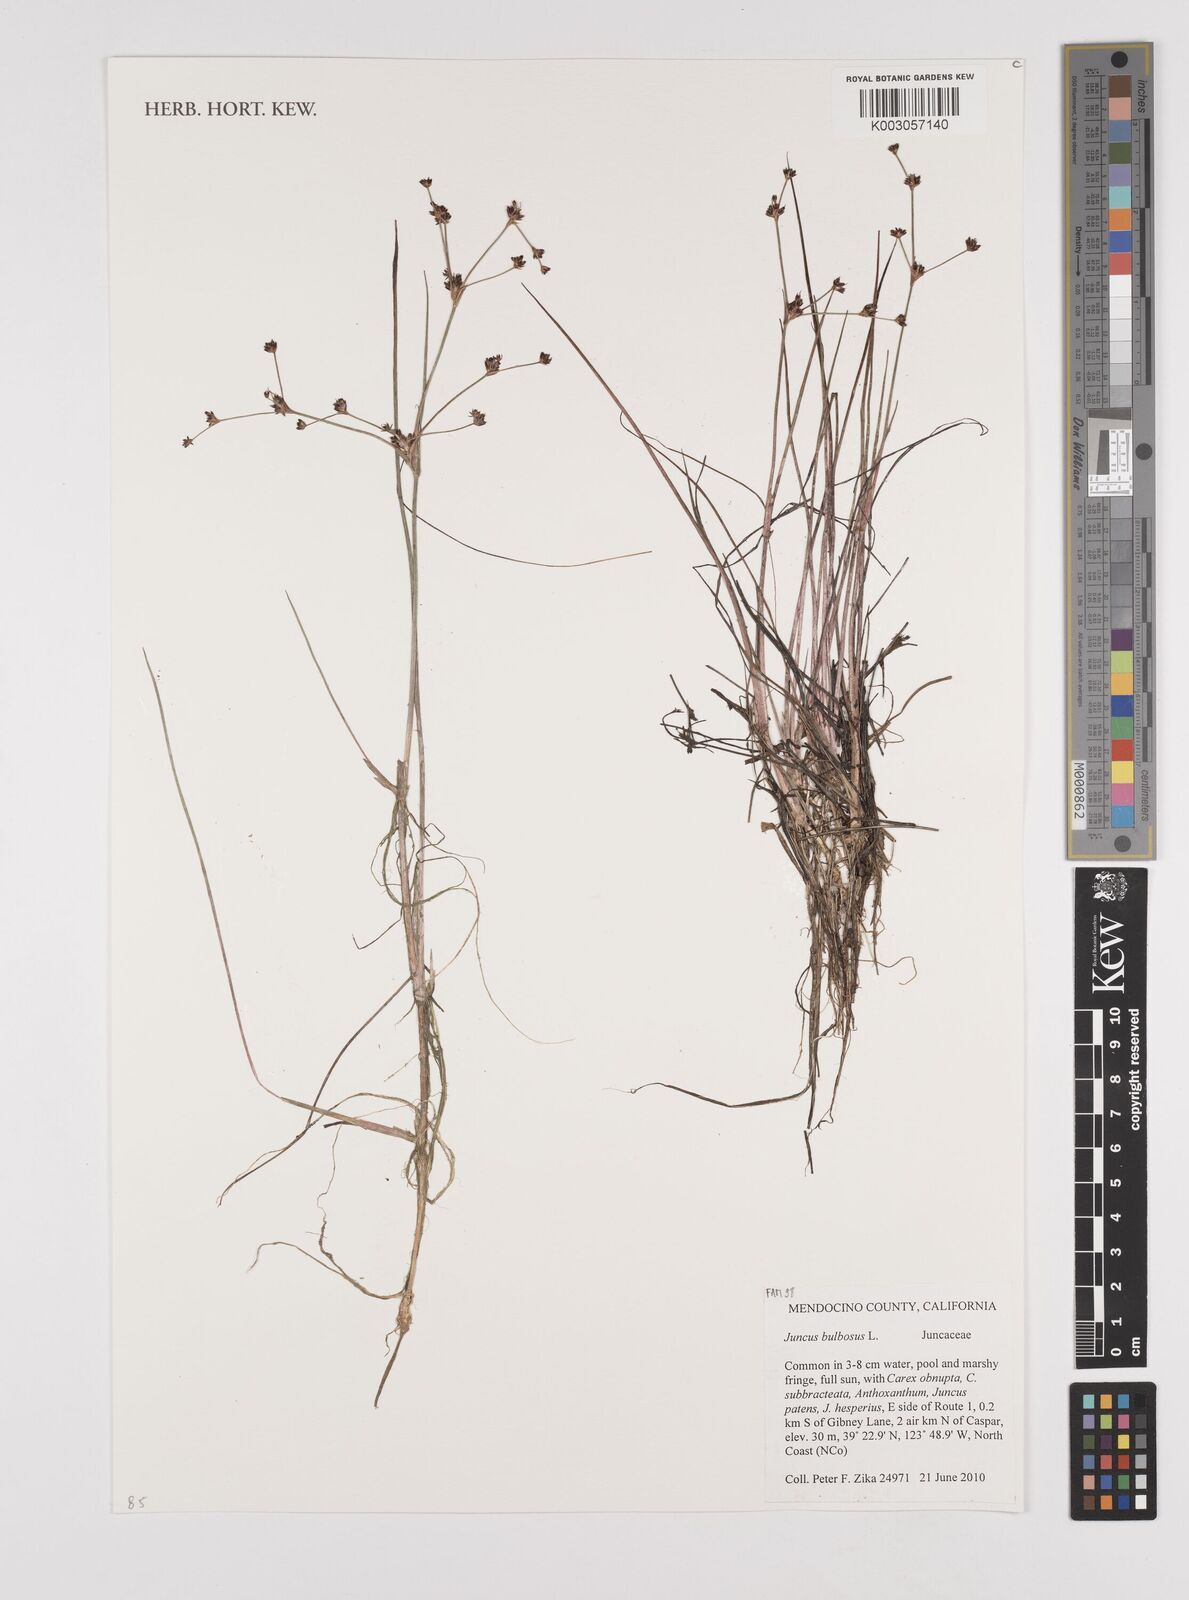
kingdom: Plantae
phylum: Tracheophyta
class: Liliopsida
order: Poales
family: Juncaceae
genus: Juncus
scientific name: Juncus bulbosus
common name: Bulbous rush
